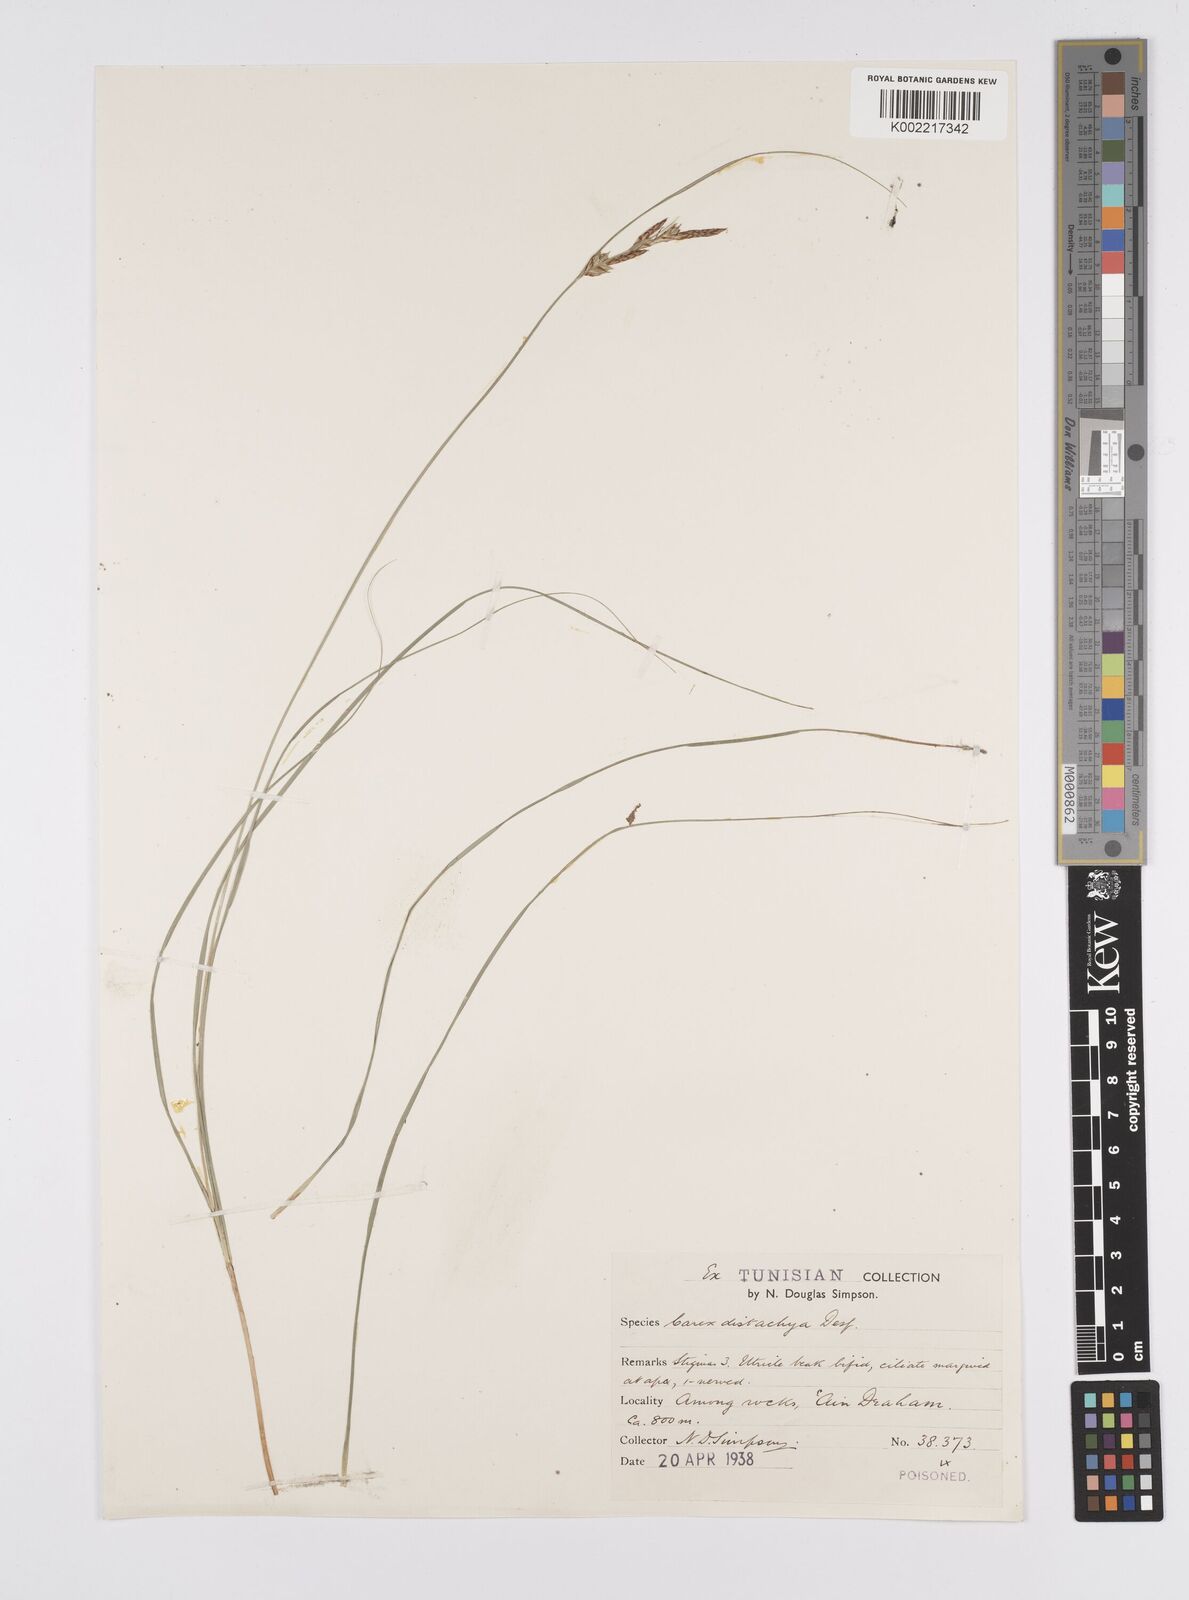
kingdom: Plantae
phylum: Tracheophyta
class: Liliopsida
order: Poales
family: Cyperaceae
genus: Carex
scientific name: Carex distachya
